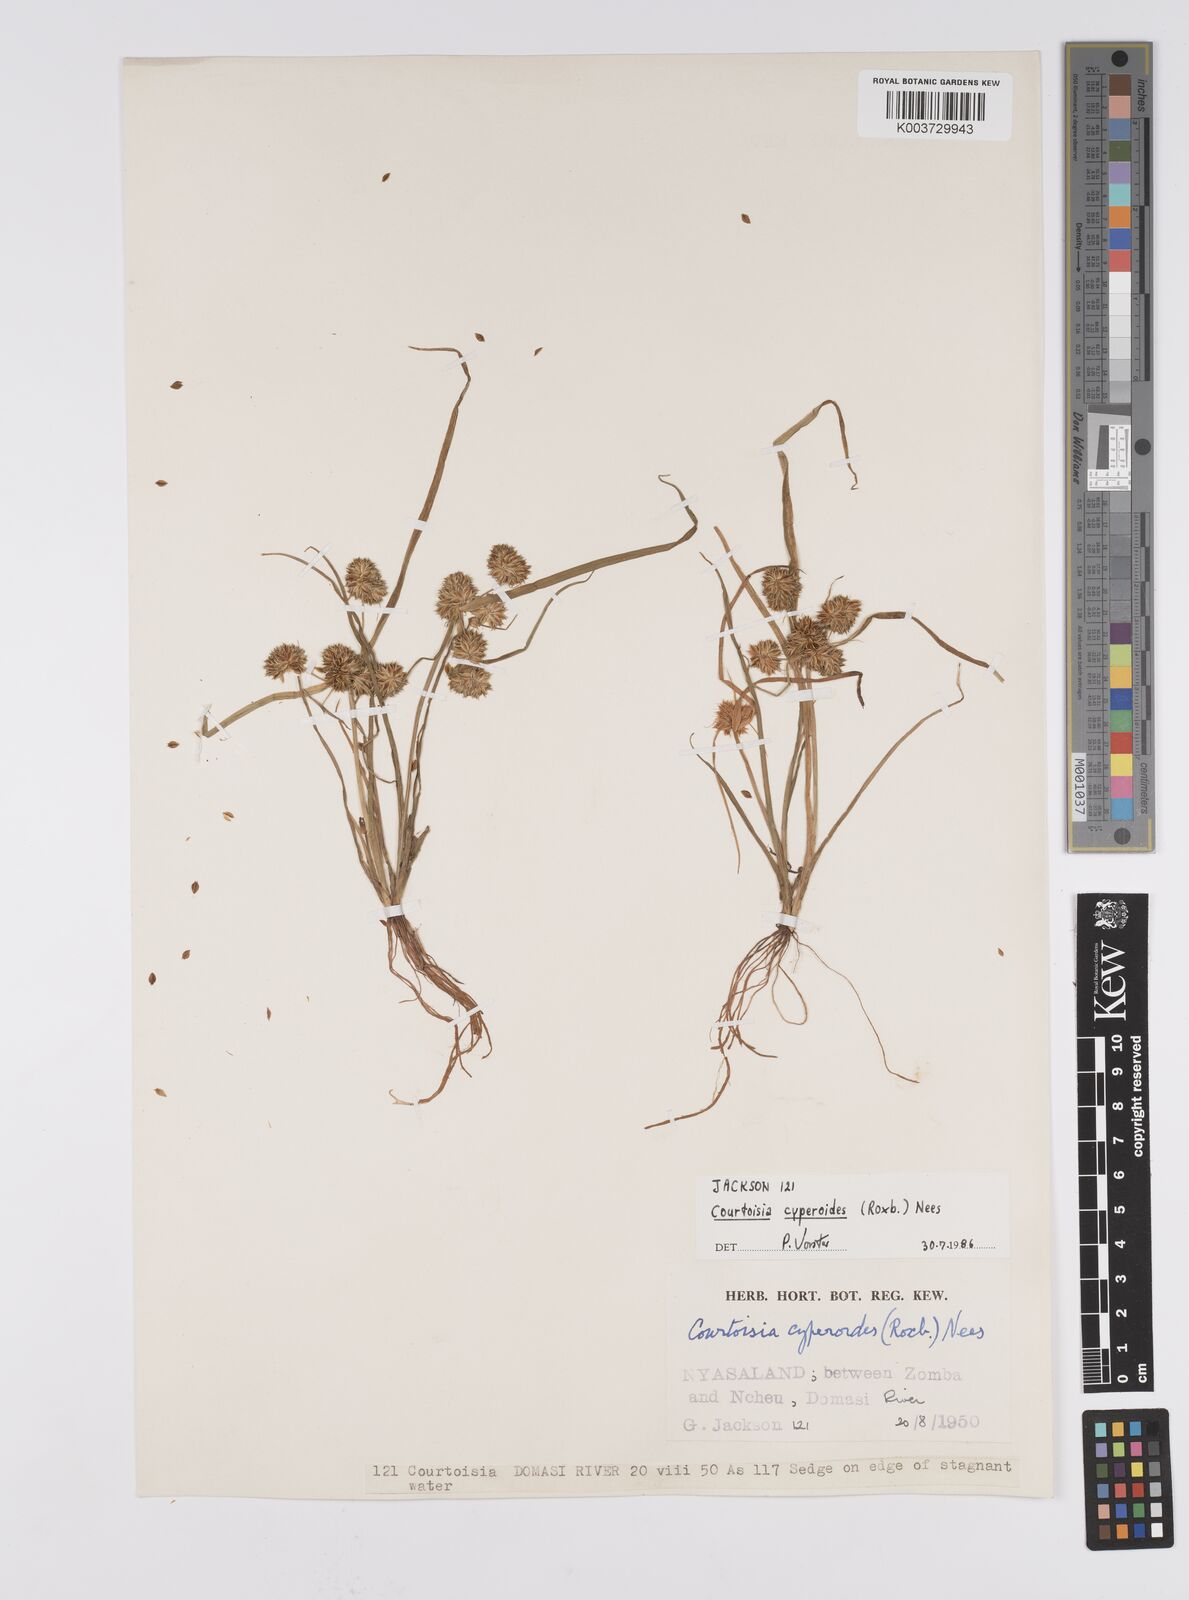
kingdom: Plantae
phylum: Tracheophyta
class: Liliopsida
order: Poales
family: Cyperaceae
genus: Cyperus
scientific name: Cyperus cyperoides
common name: Pacific island flat sedge
